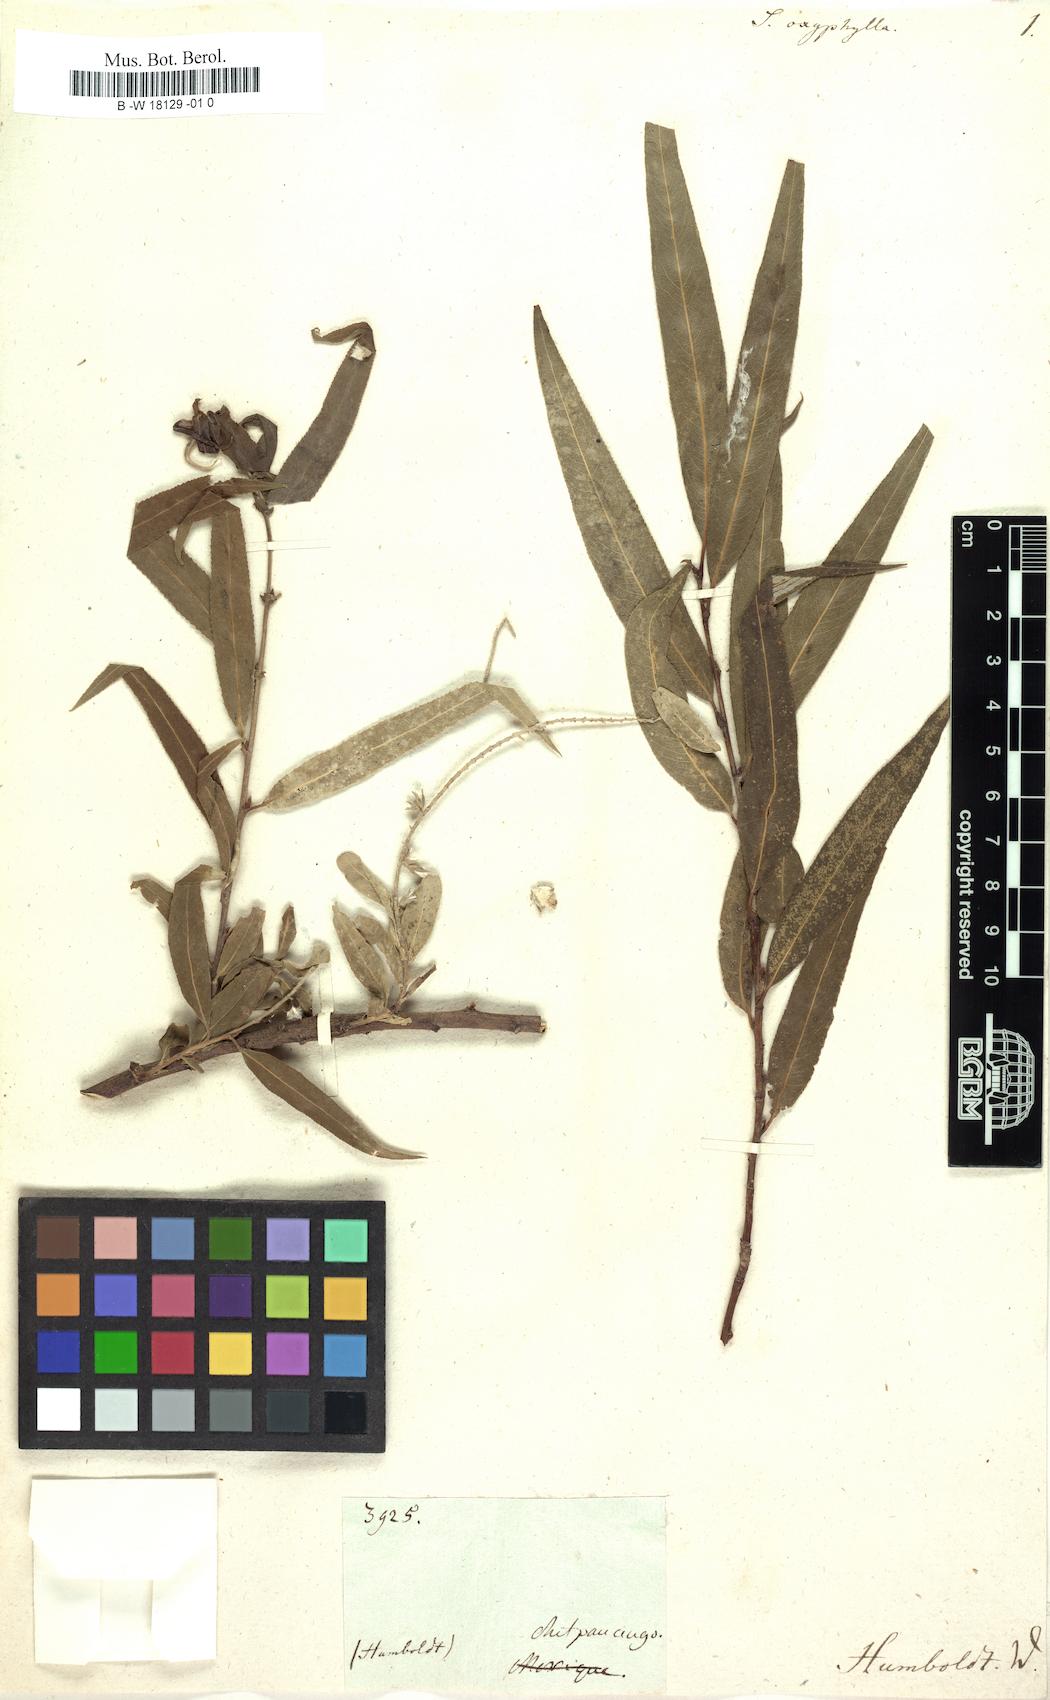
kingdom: Plantae
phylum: Tracheophyta
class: Magnoliopsida
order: Malpighiales
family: Salicaceae
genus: Salix
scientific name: Salix humboldtiana
